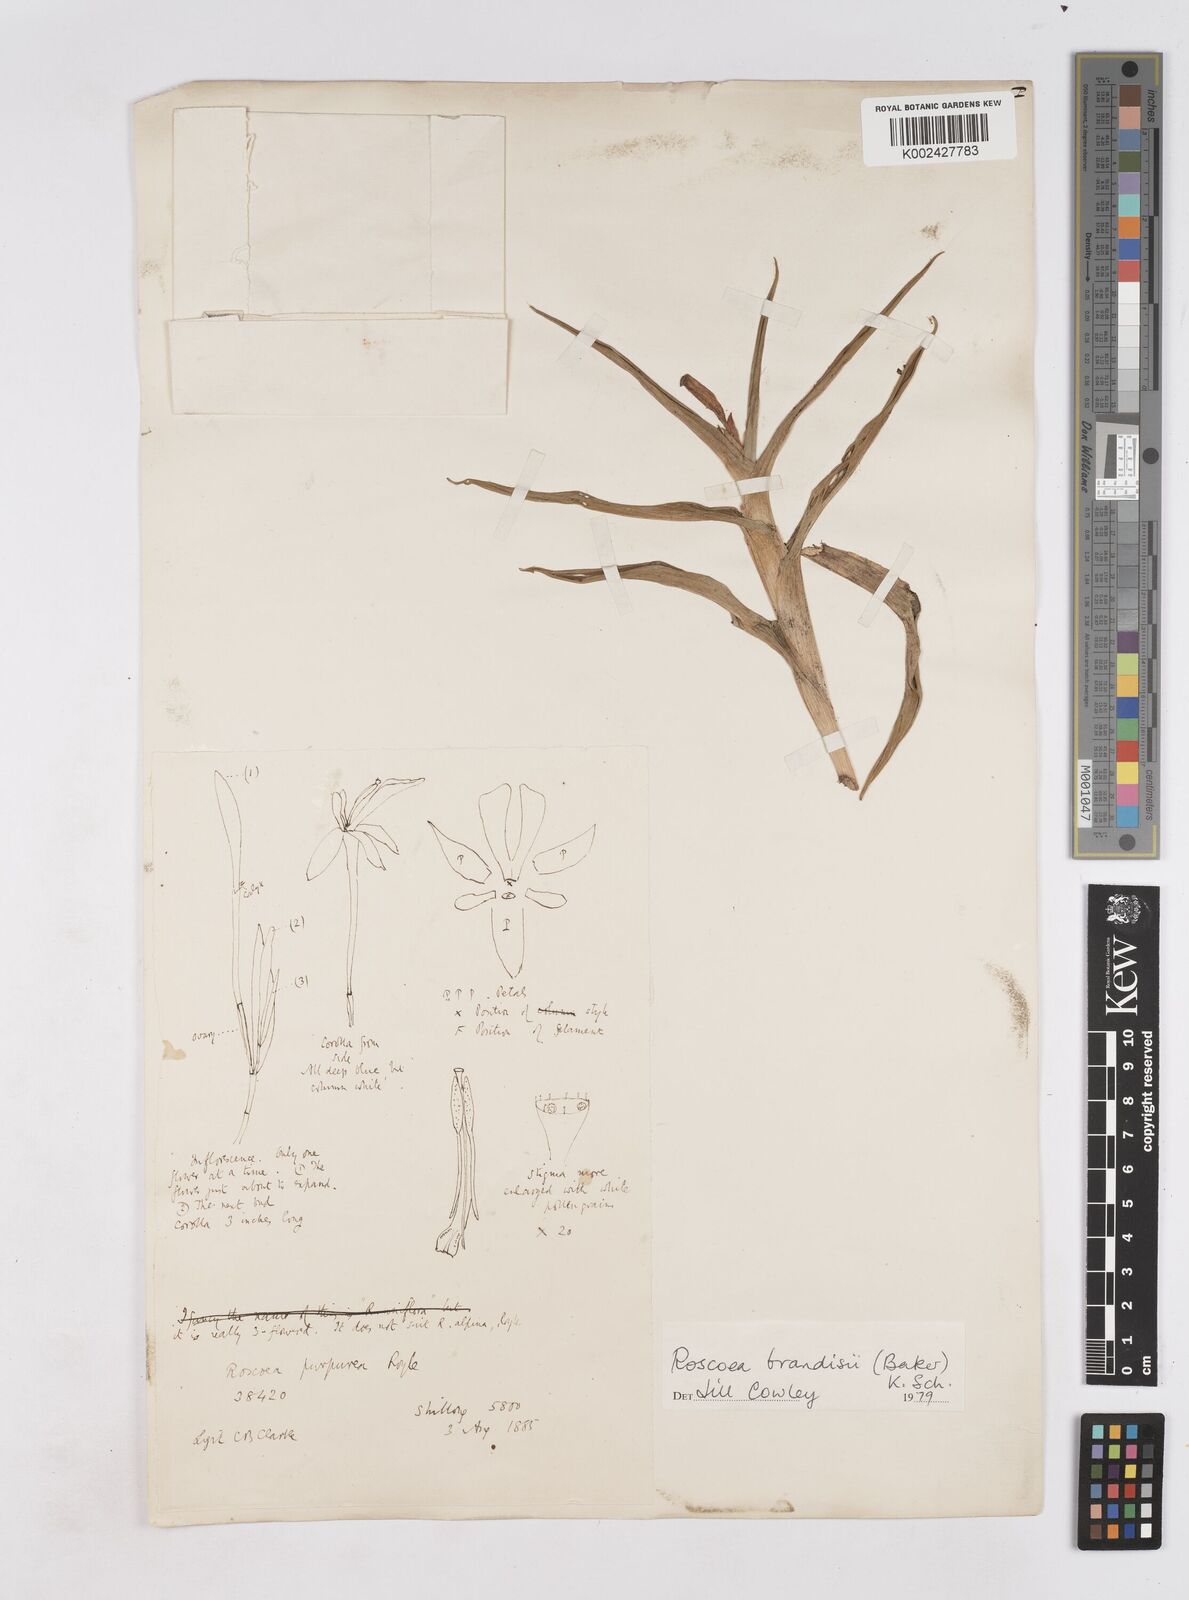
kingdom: Plantae
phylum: Tracheophyta
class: Liliopsida
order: Zingiberales
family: Zingiberaceae
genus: Roscoea
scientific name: Roscoea brandisii
